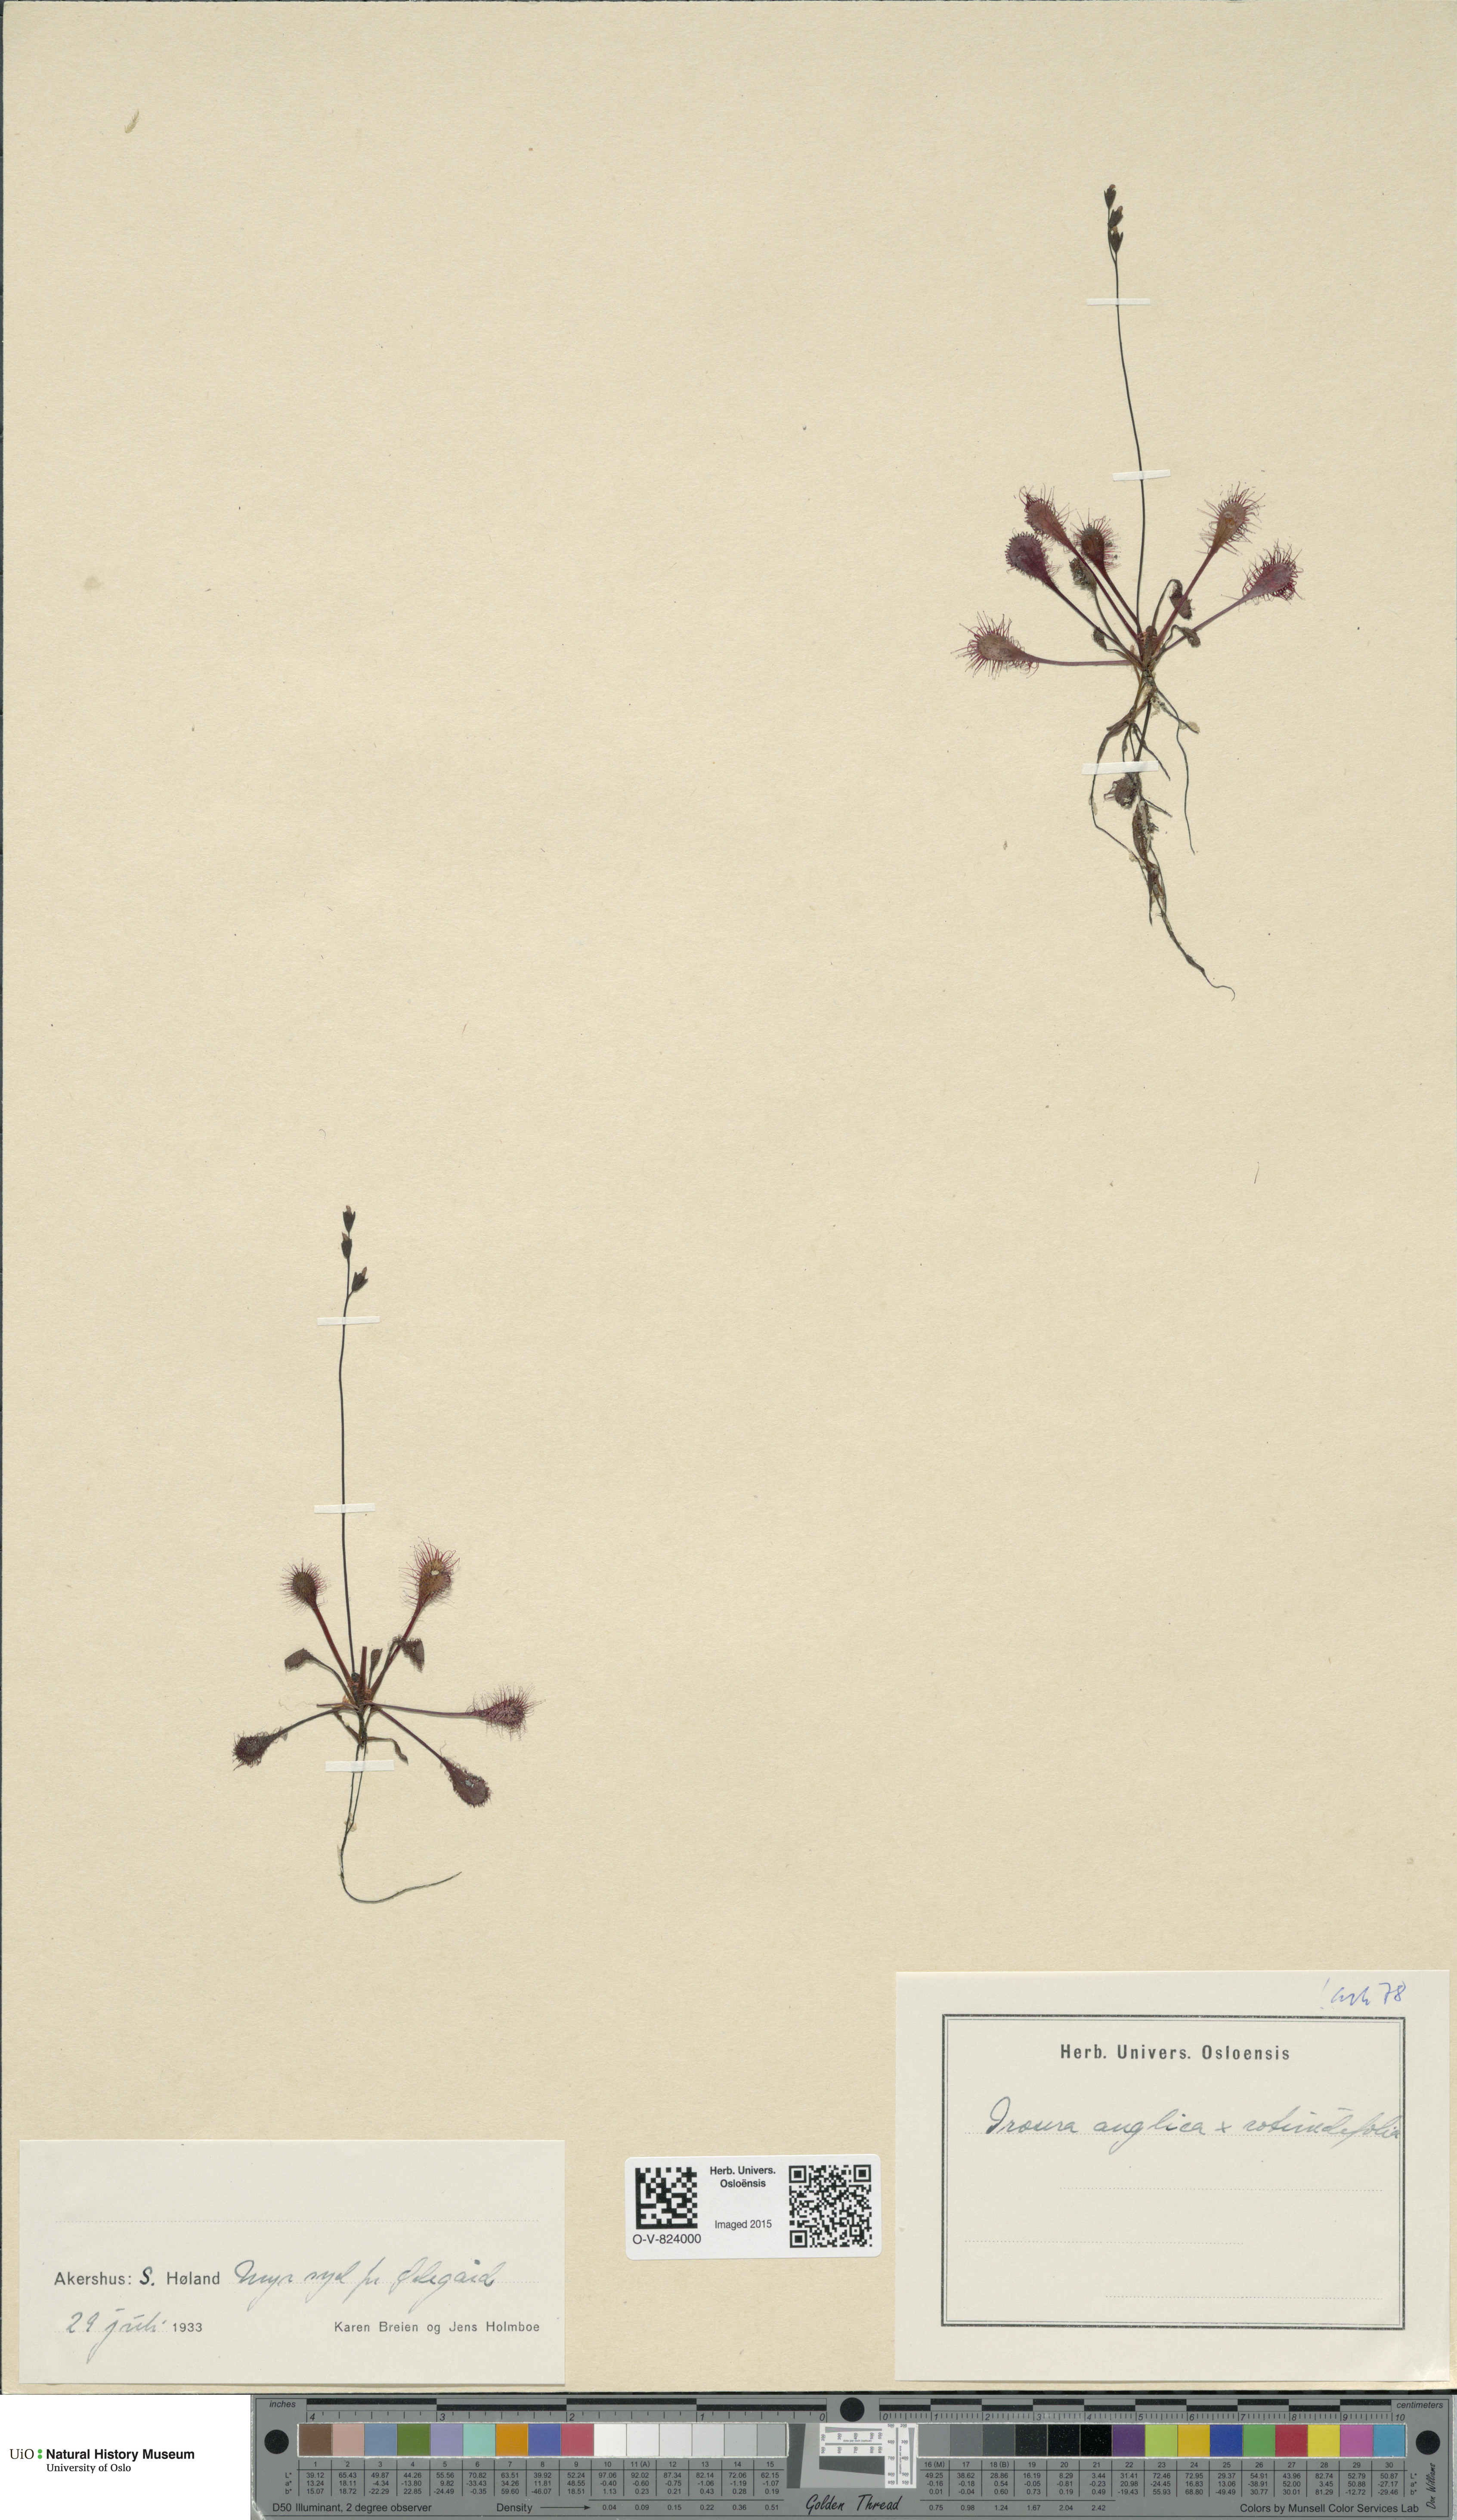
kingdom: Plantae
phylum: Tracheophyta
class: Magnoliopsida
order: Caryophyllales
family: Droseraceae
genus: Drosera
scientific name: Drosera
